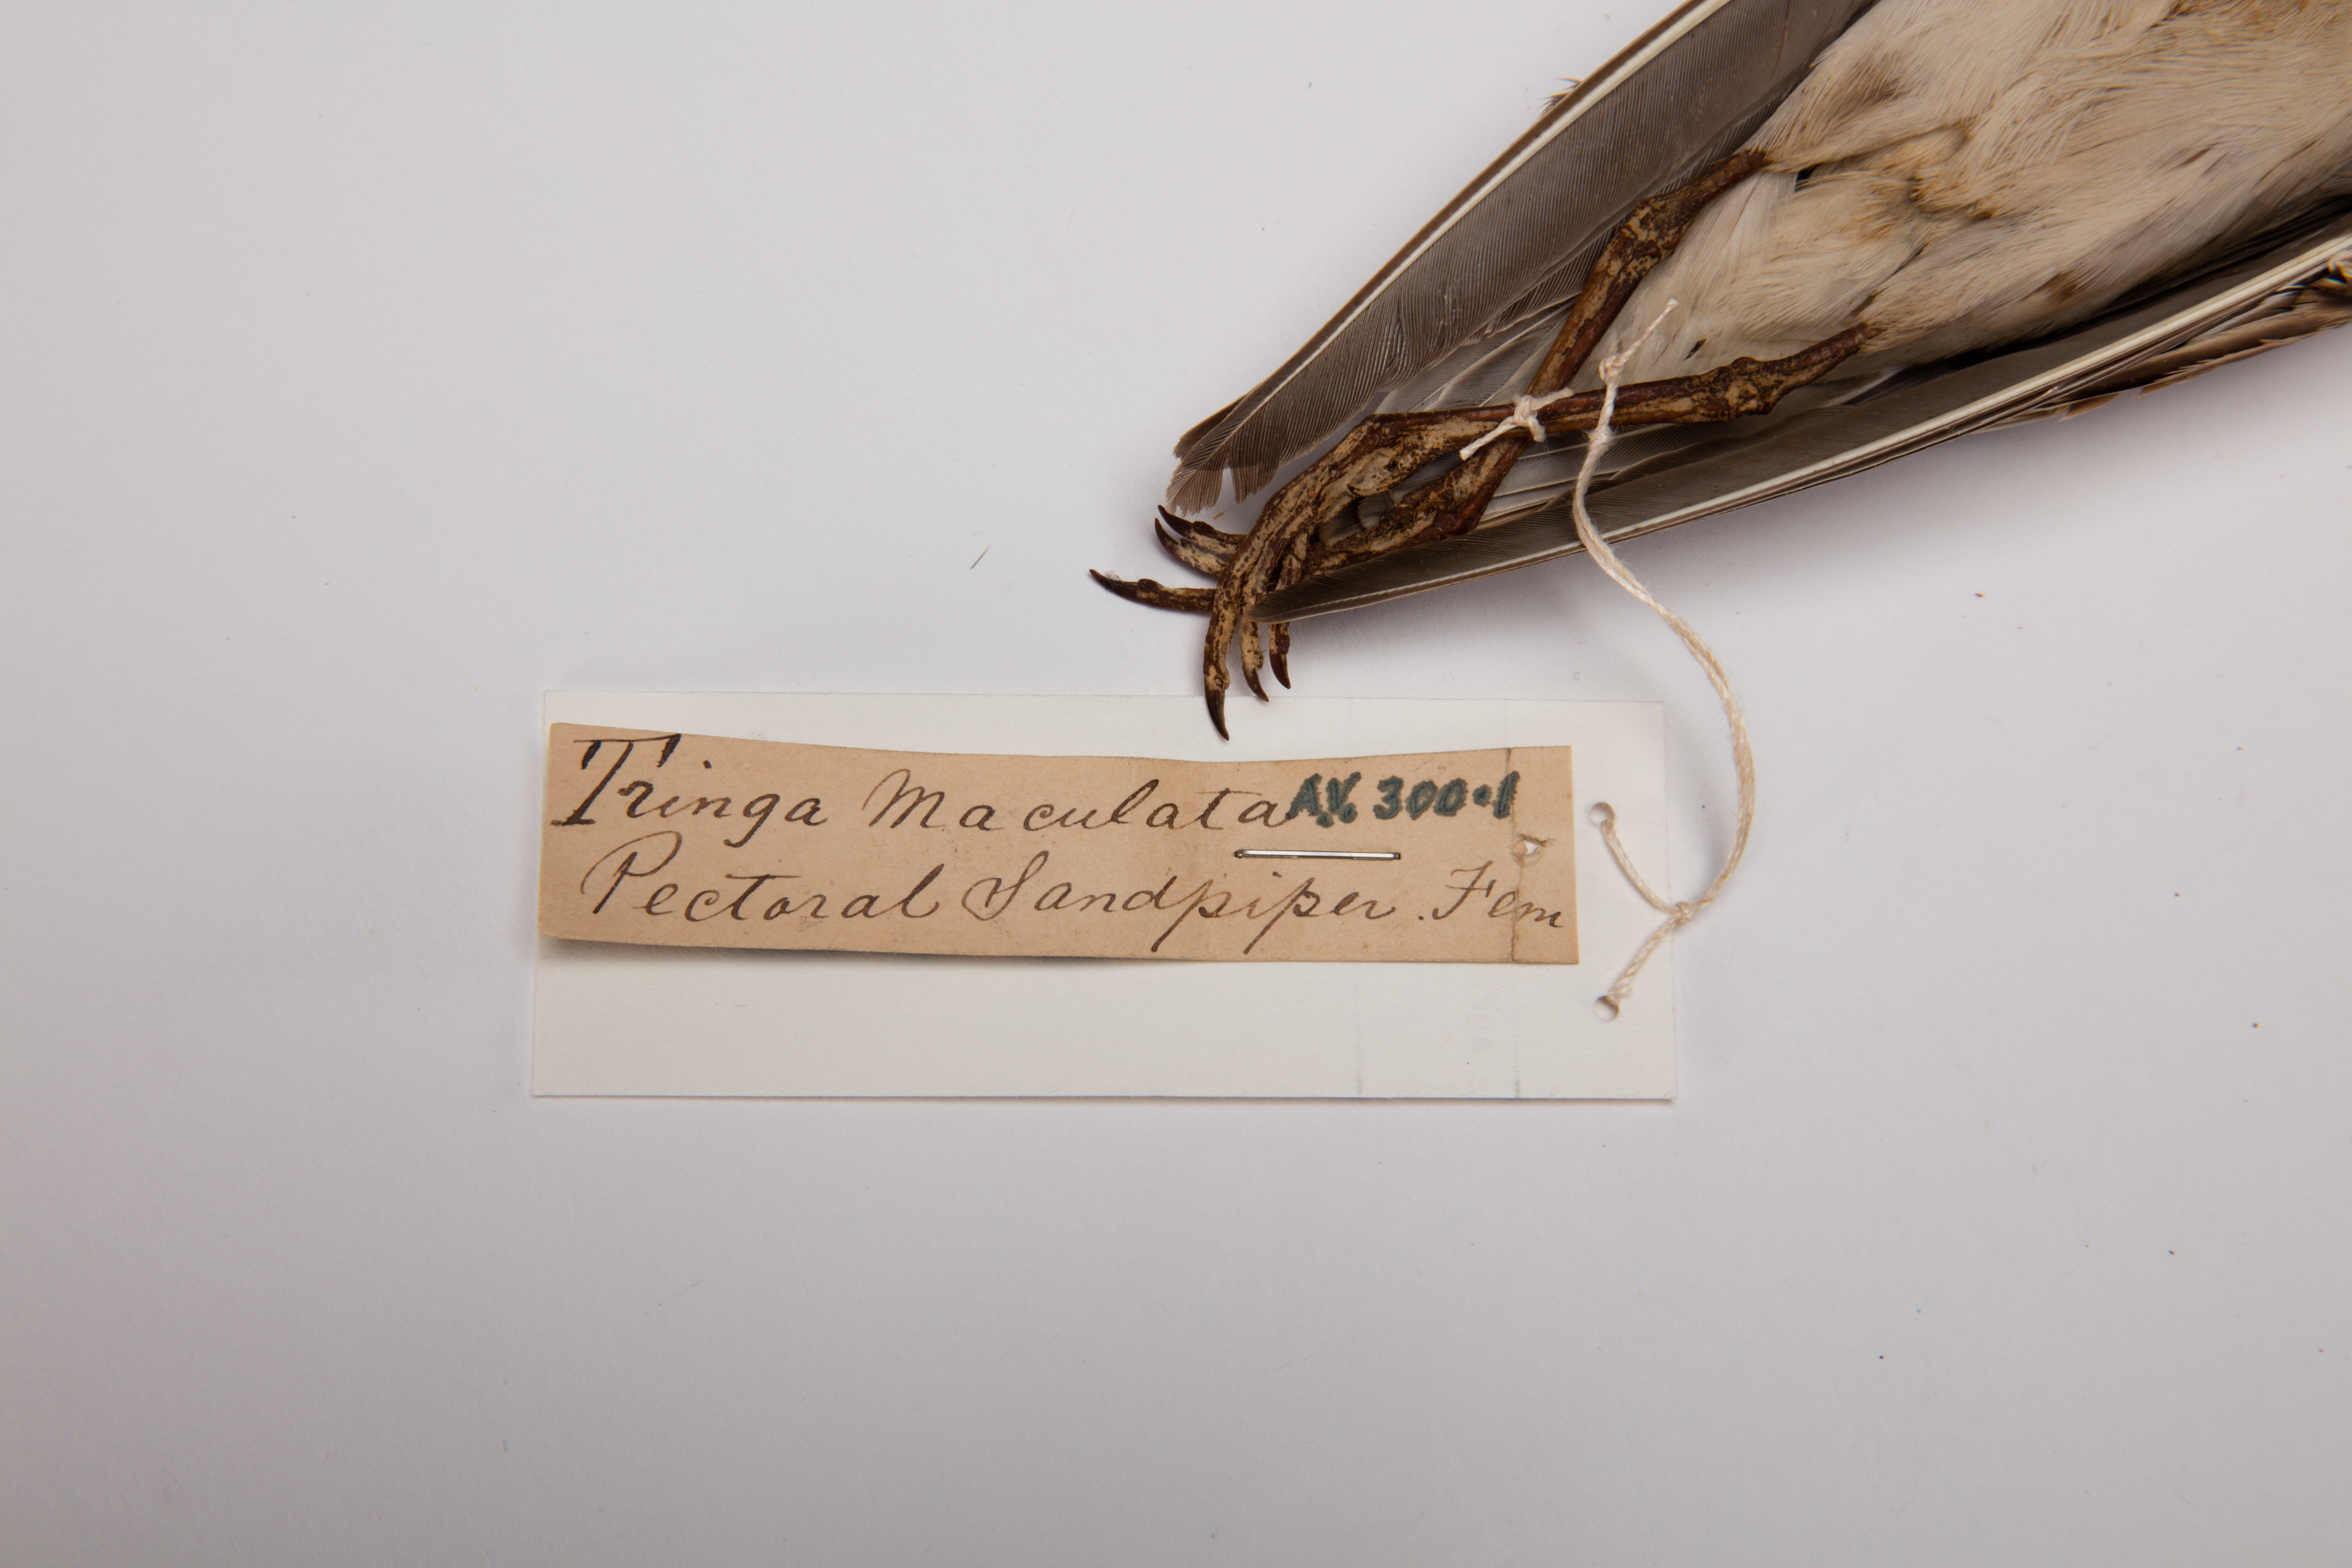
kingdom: Animalia
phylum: Chordata
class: Aves
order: Charadriiformes
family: Scolopacidae
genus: Calidris
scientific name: Calidris melanotos
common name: Pectoral sandpiper
